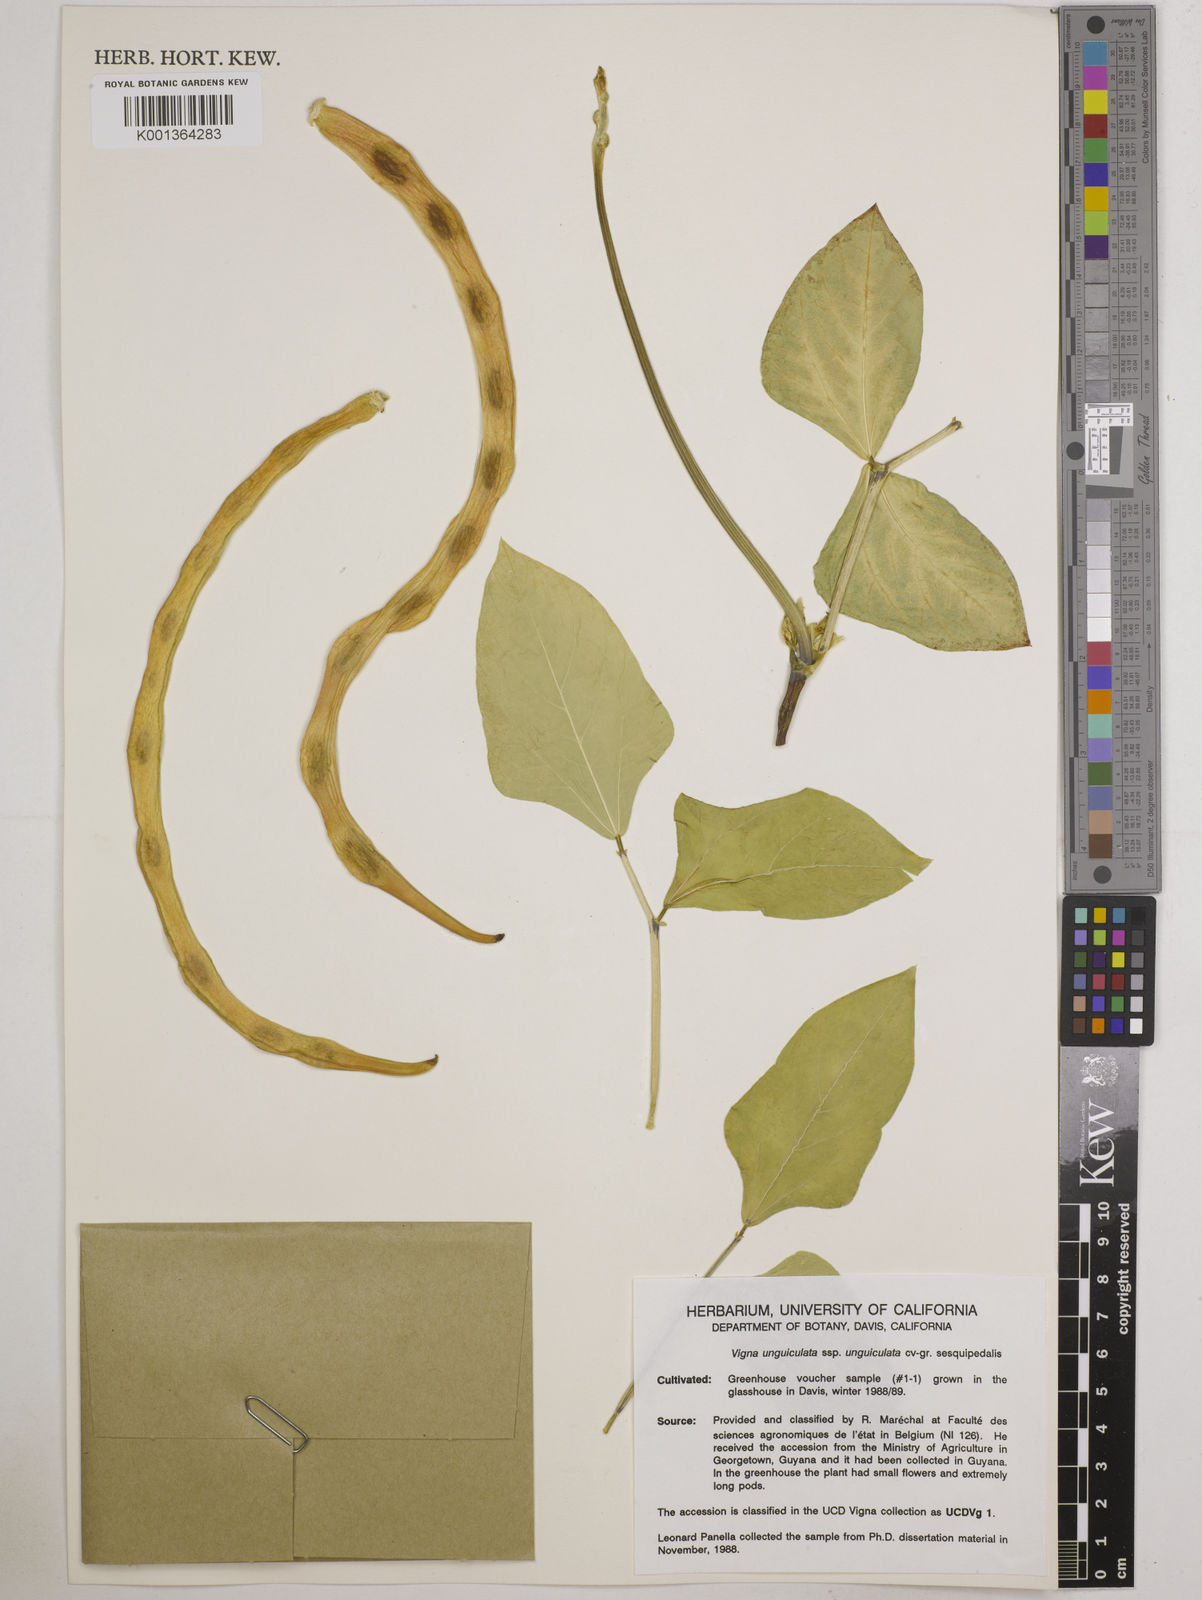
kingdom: Plantae
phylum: Tracheophyta
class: Magnoliopsida
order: Fabales
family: Fabaceae
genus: Vigna
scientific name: Vigna
